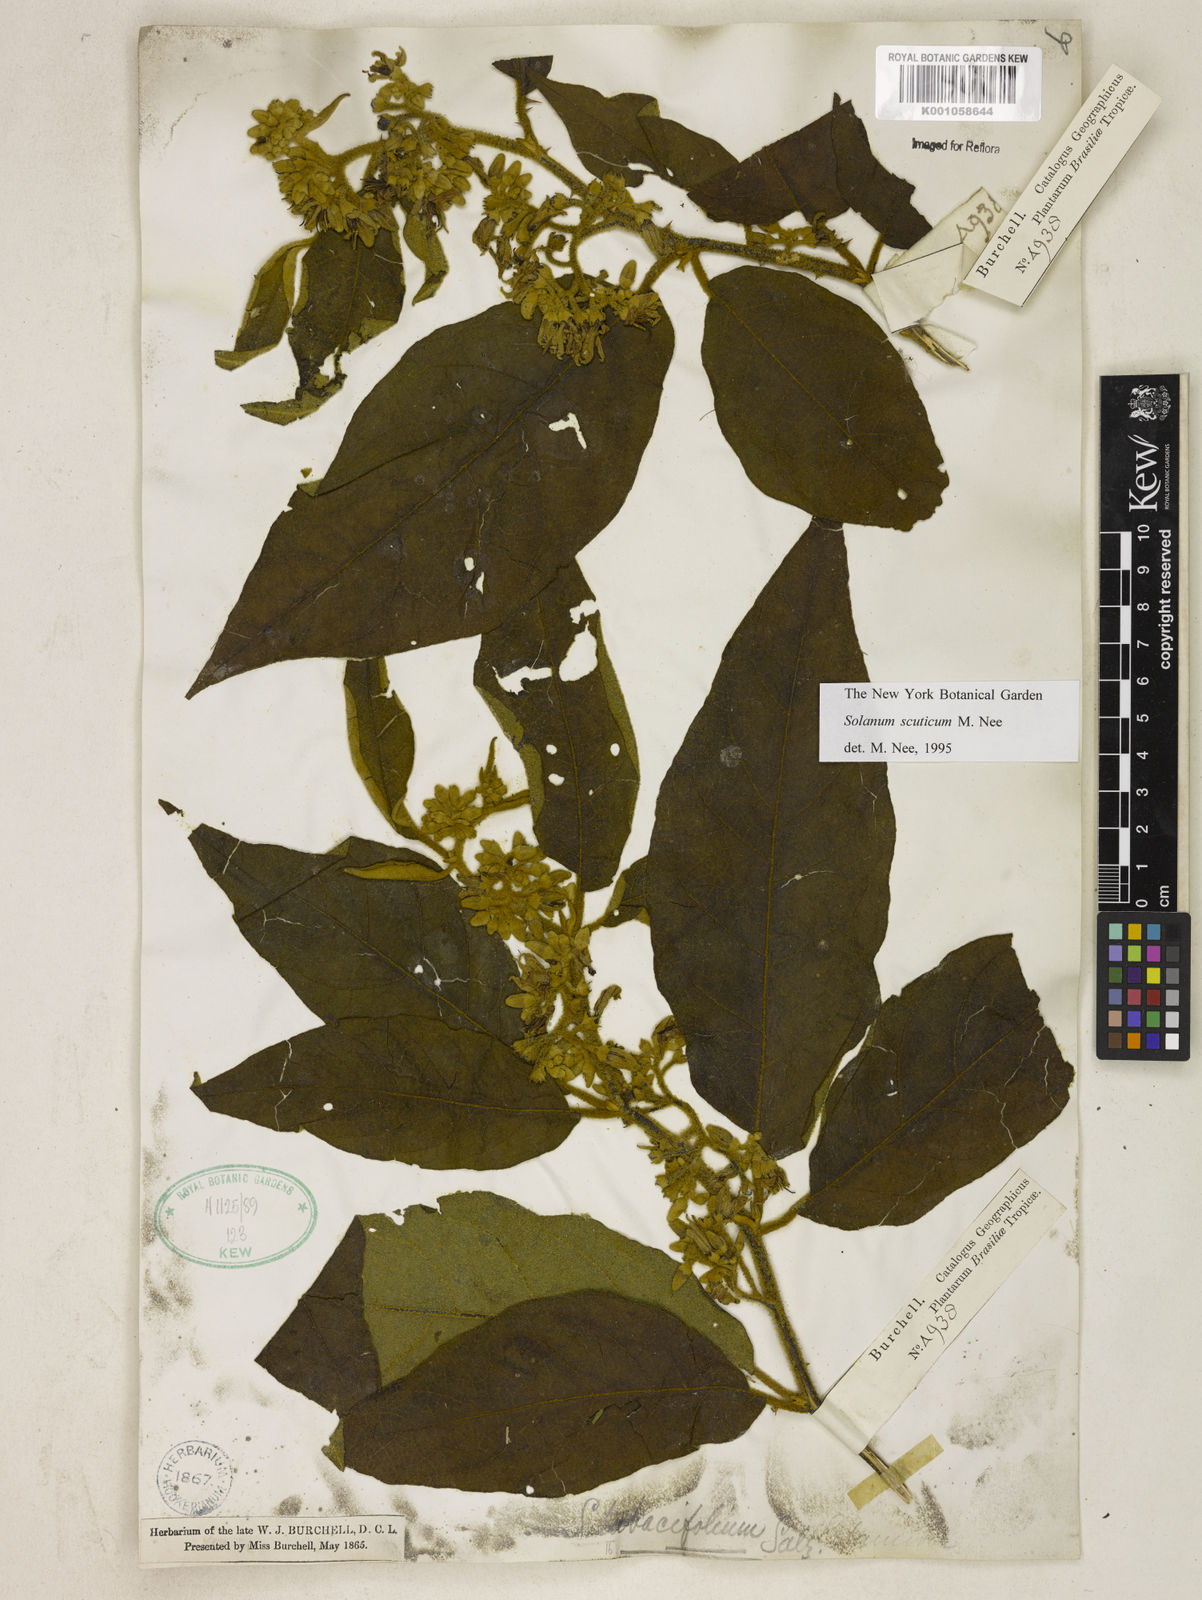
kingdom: Plantae
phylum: Tracheophyta
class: Magnoliopsida
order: Solanales
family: Solanaceae
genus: Solanum
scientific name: Solanum scuticum
